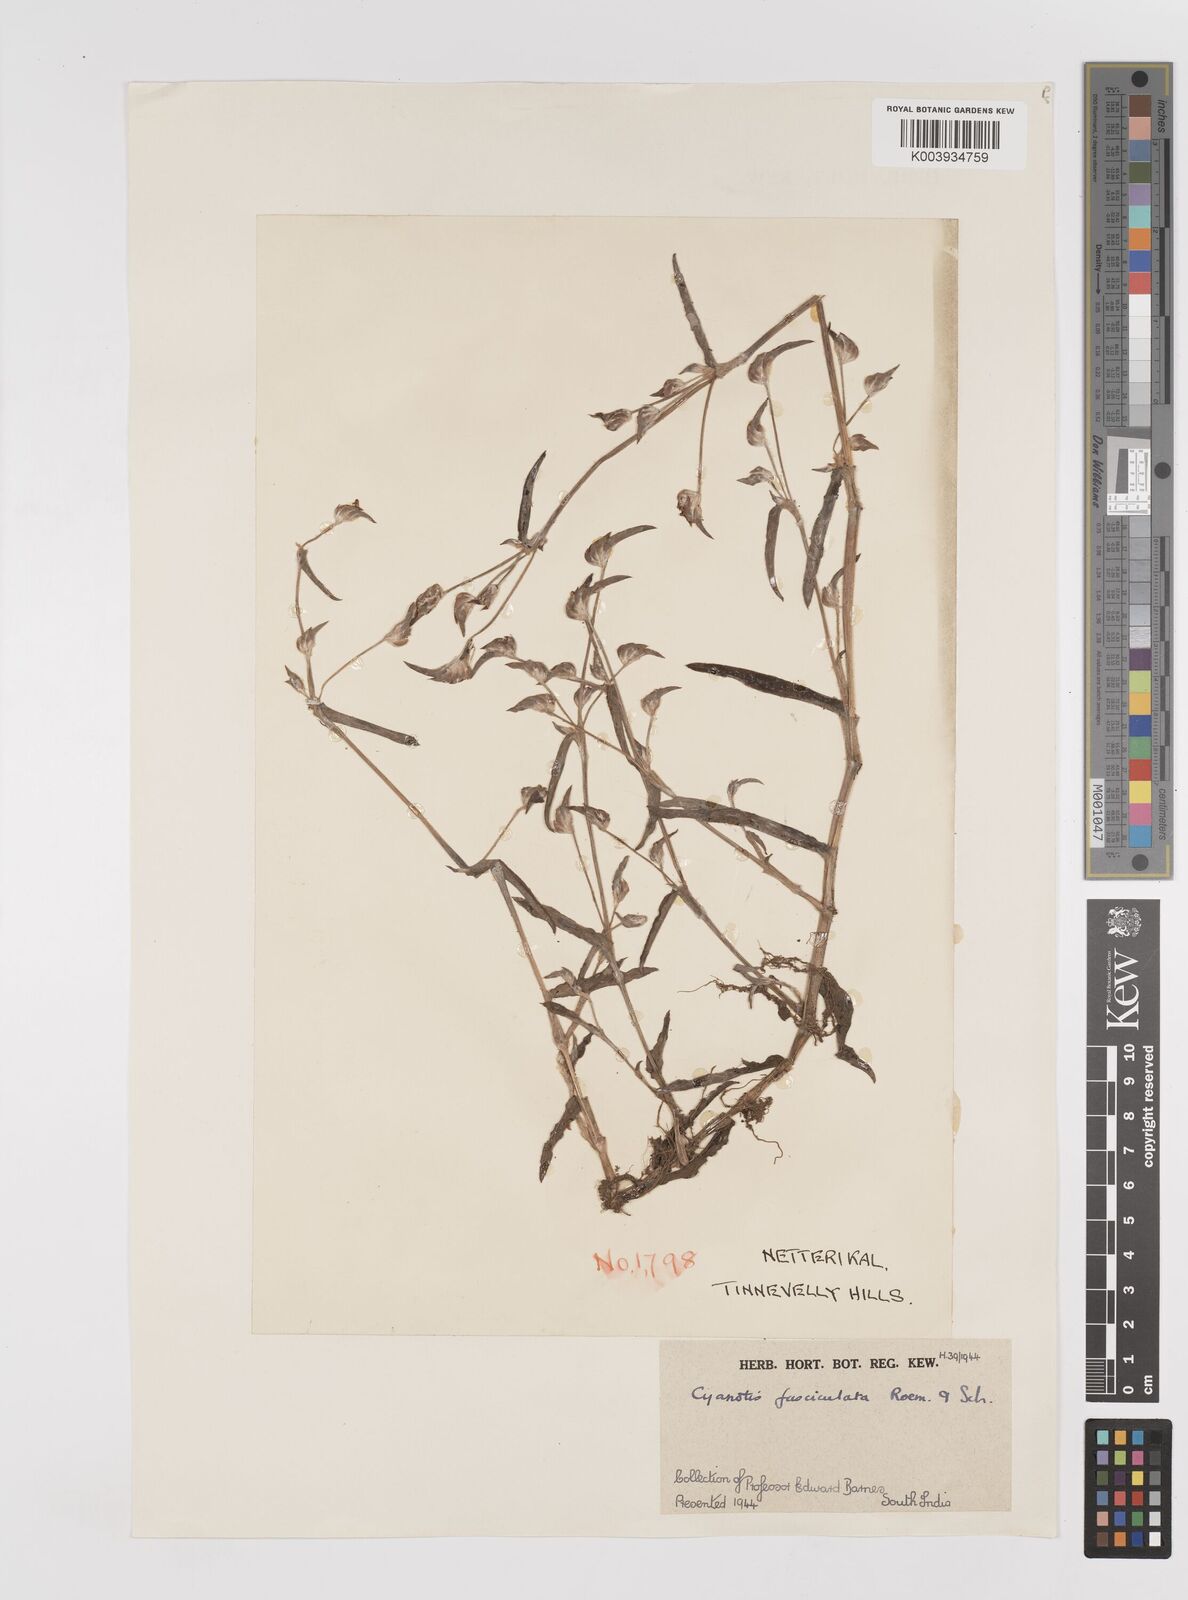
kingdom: Plantae
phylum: Tracheophyta
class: Liliopsida
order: Commelinales
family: Commelinaceae
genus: Cyanotis
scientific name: Cyanotis fasciculata
